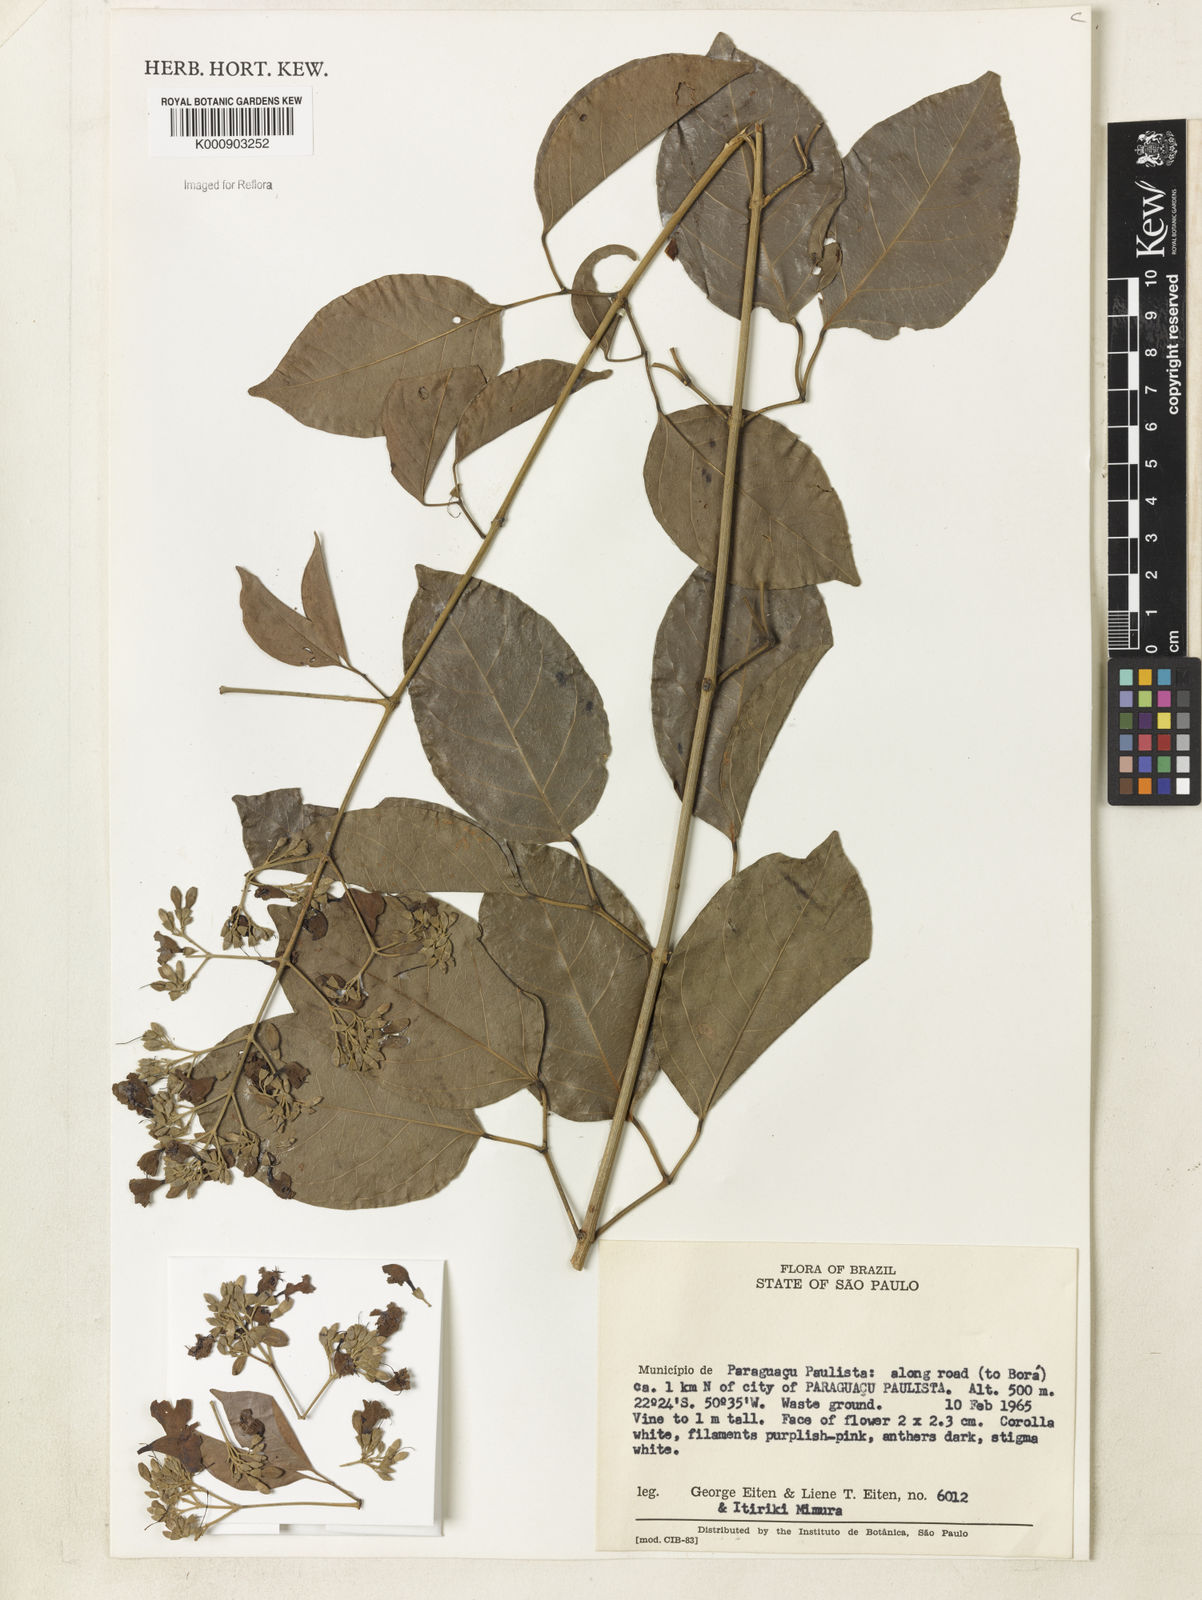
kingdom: Plantae
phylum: Tracheophyta
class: Magnoliopsida
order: Lamiales
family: Bignoniaceae
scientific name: Bignoniaceae
